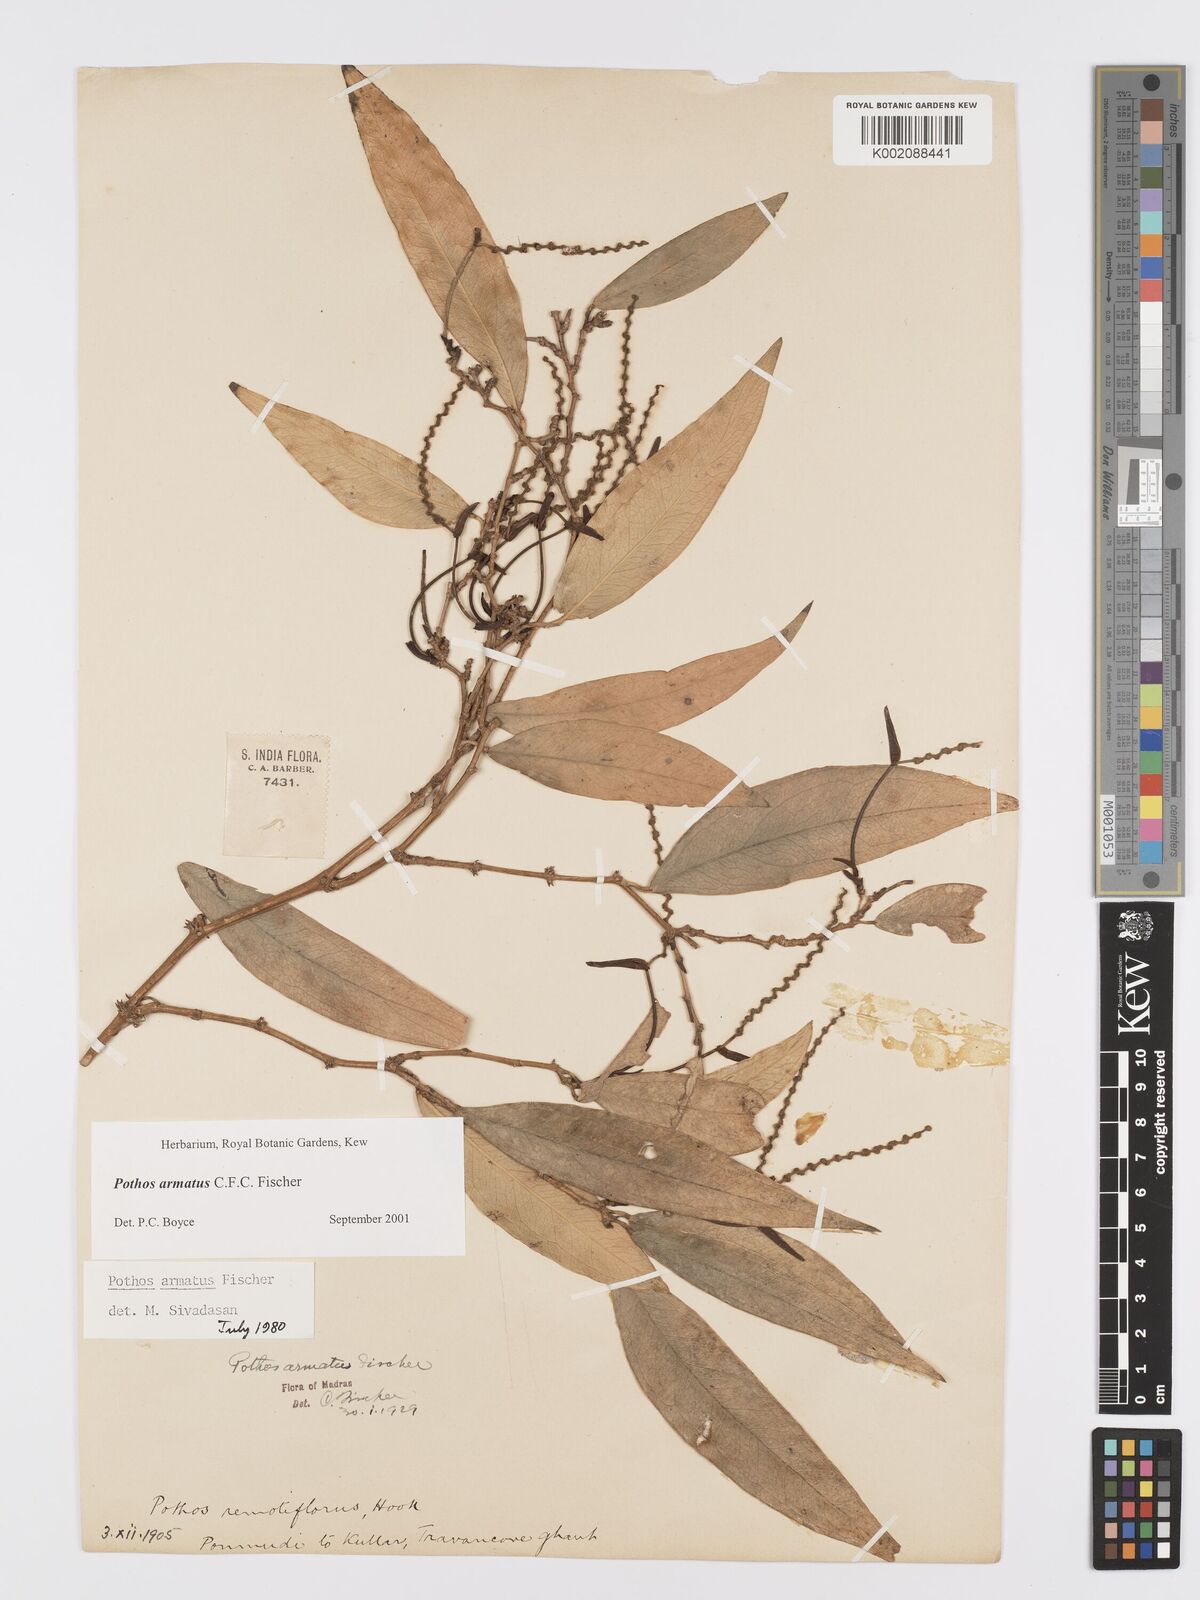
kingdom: Plantae
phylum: Tracheophyta
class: Liliopsida
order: Alismatales
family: Araceae
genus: Pothos
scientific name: Pothos armatus
